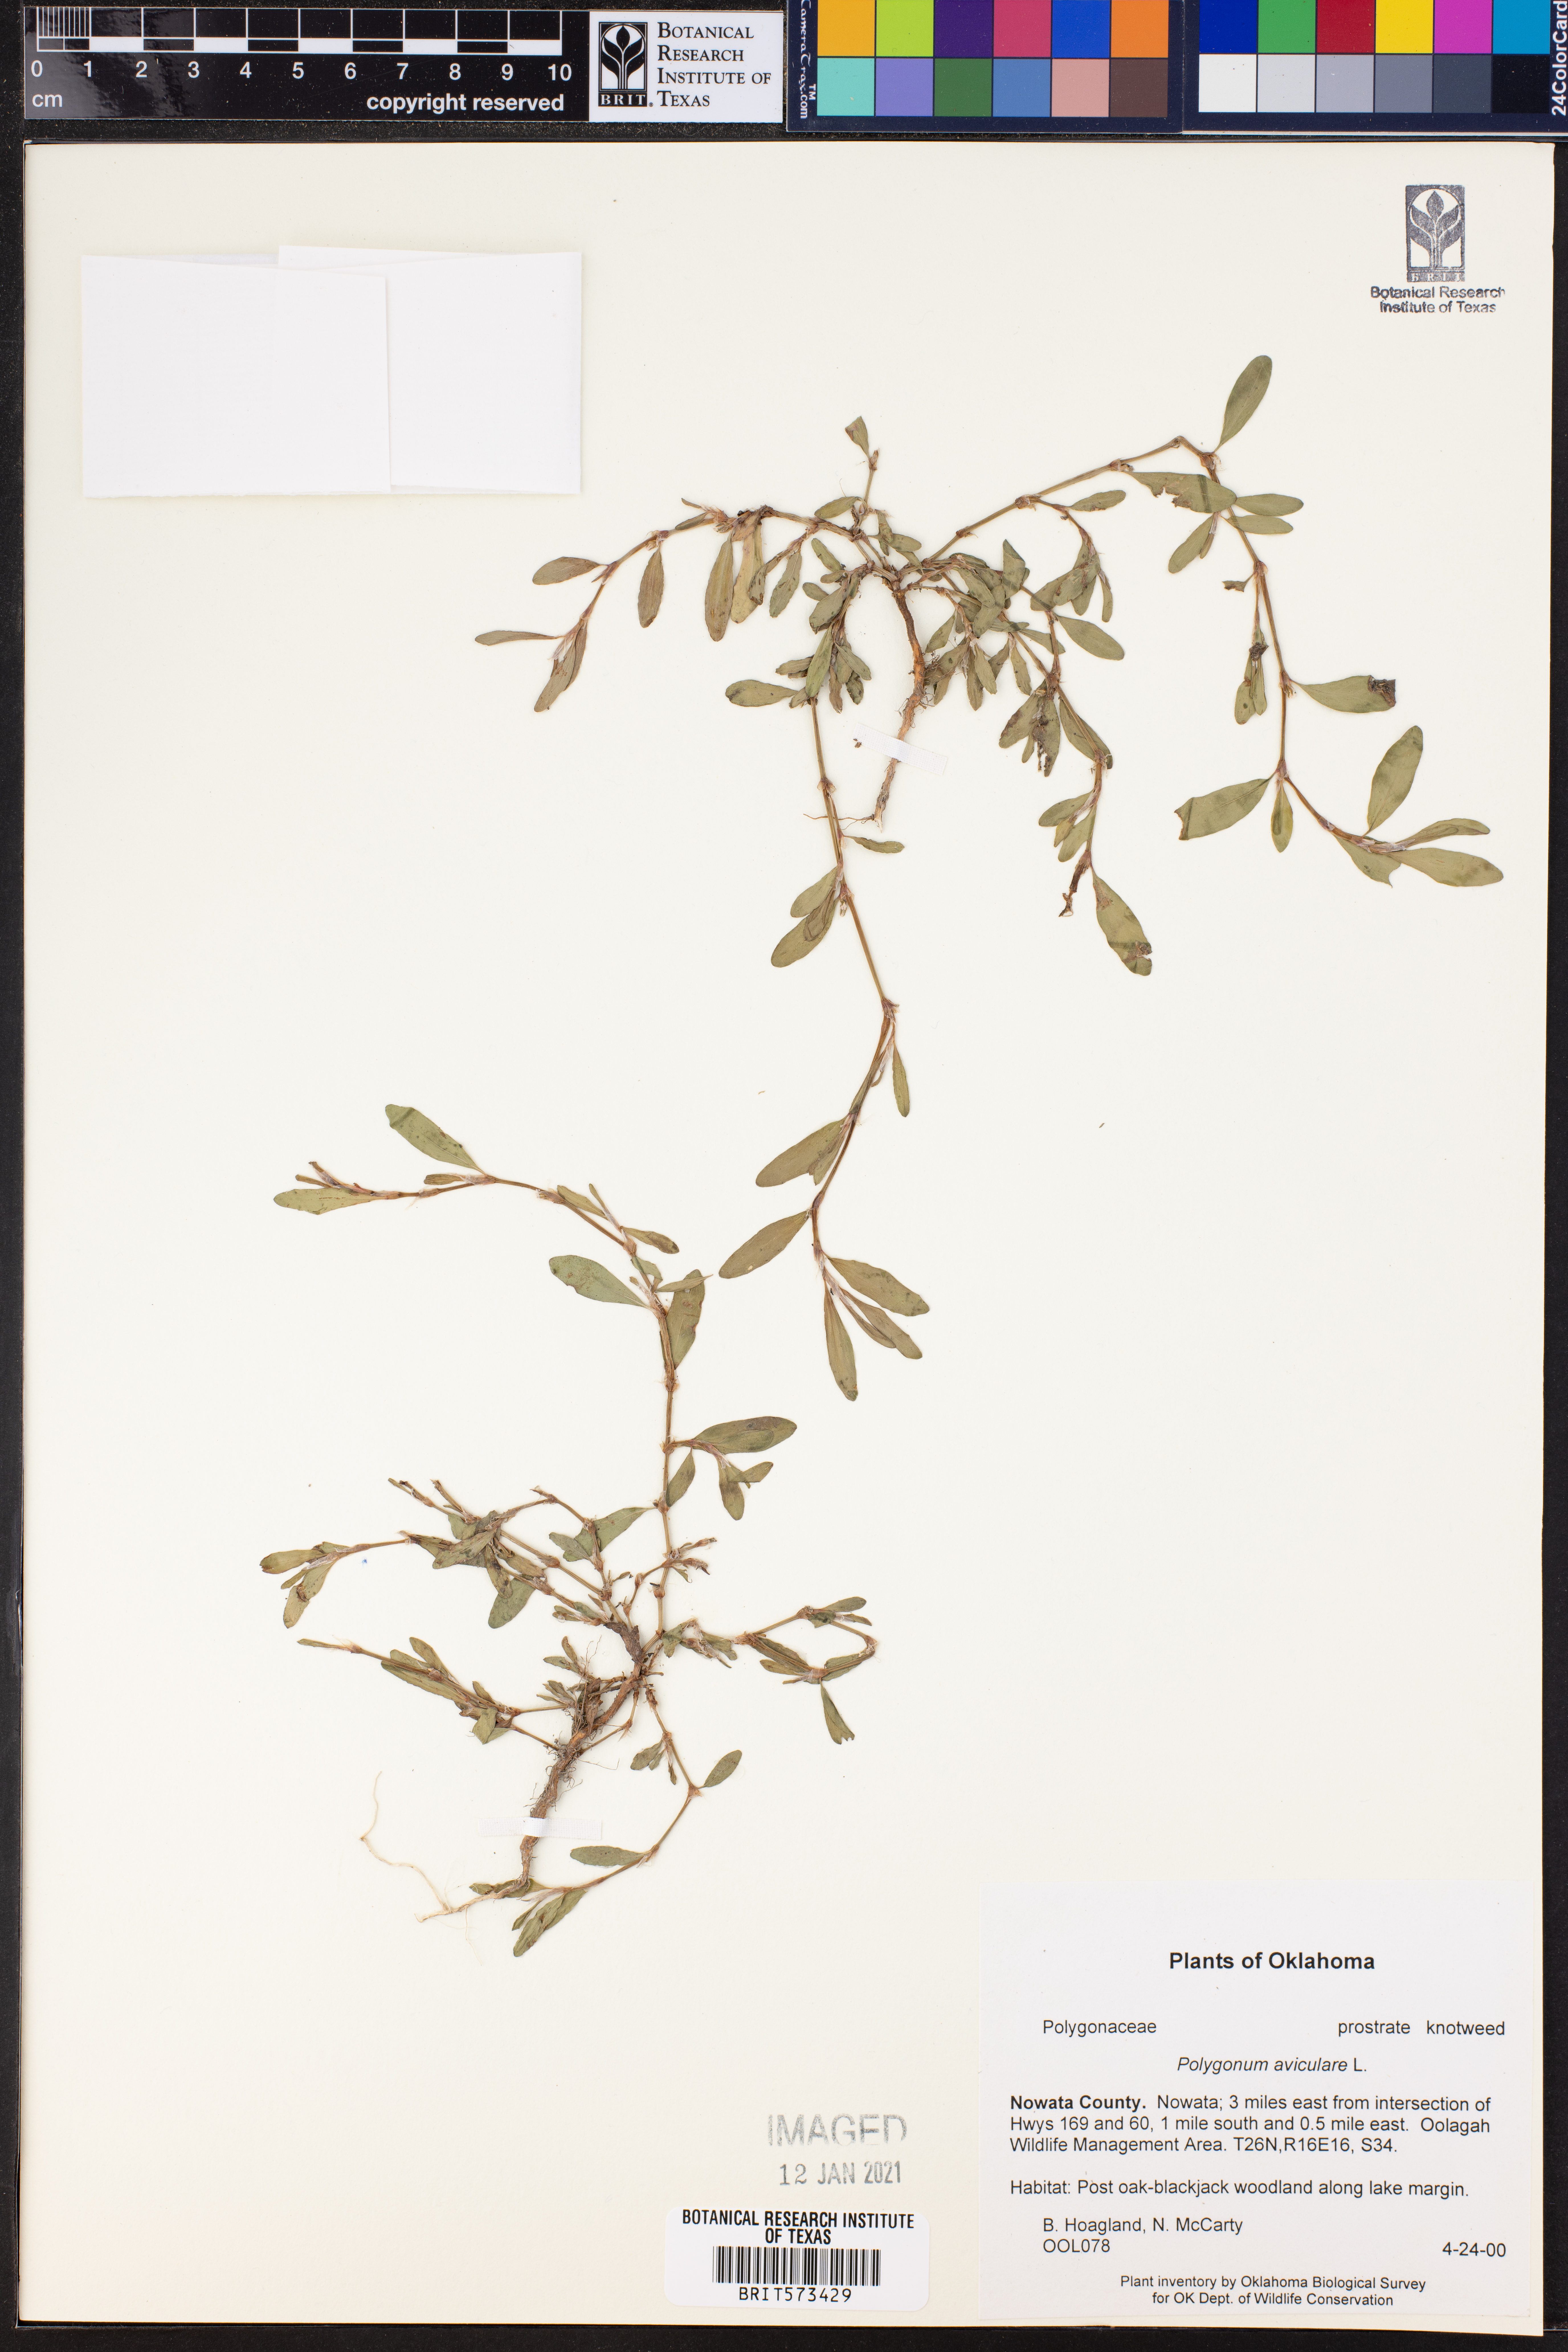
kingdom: Plantae
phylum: Tracheophyta
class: Magnoliopsida
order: Caryophyllales
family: Polygonaceae
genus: Polygonum
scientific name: Polygonum aviculare
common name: Prostrate knotweed
